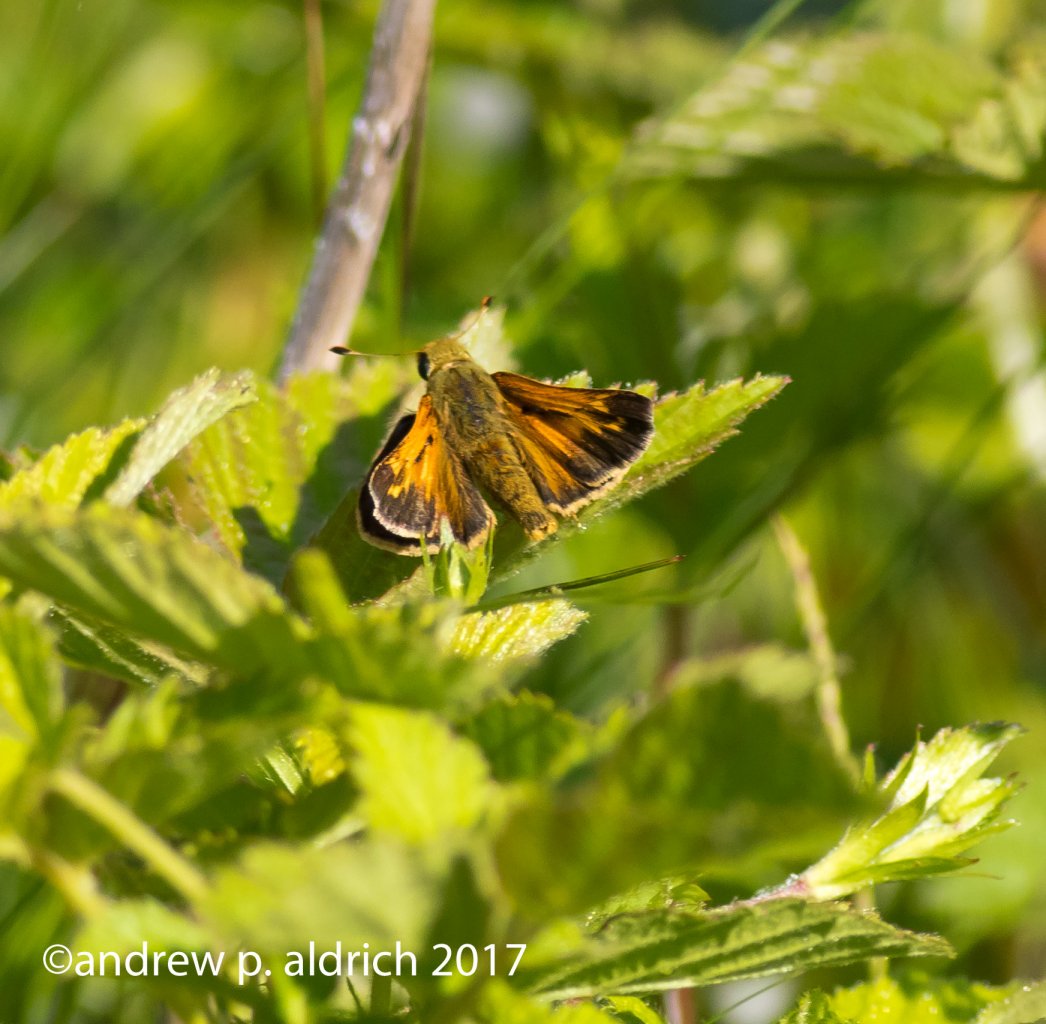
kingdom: Animalia
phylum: Arthropoda
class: Insecta
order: Lepidoptera
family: Hesperiidae
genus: Hesperia
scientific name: Hesperia sassacus
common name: Sassacus Skipper
